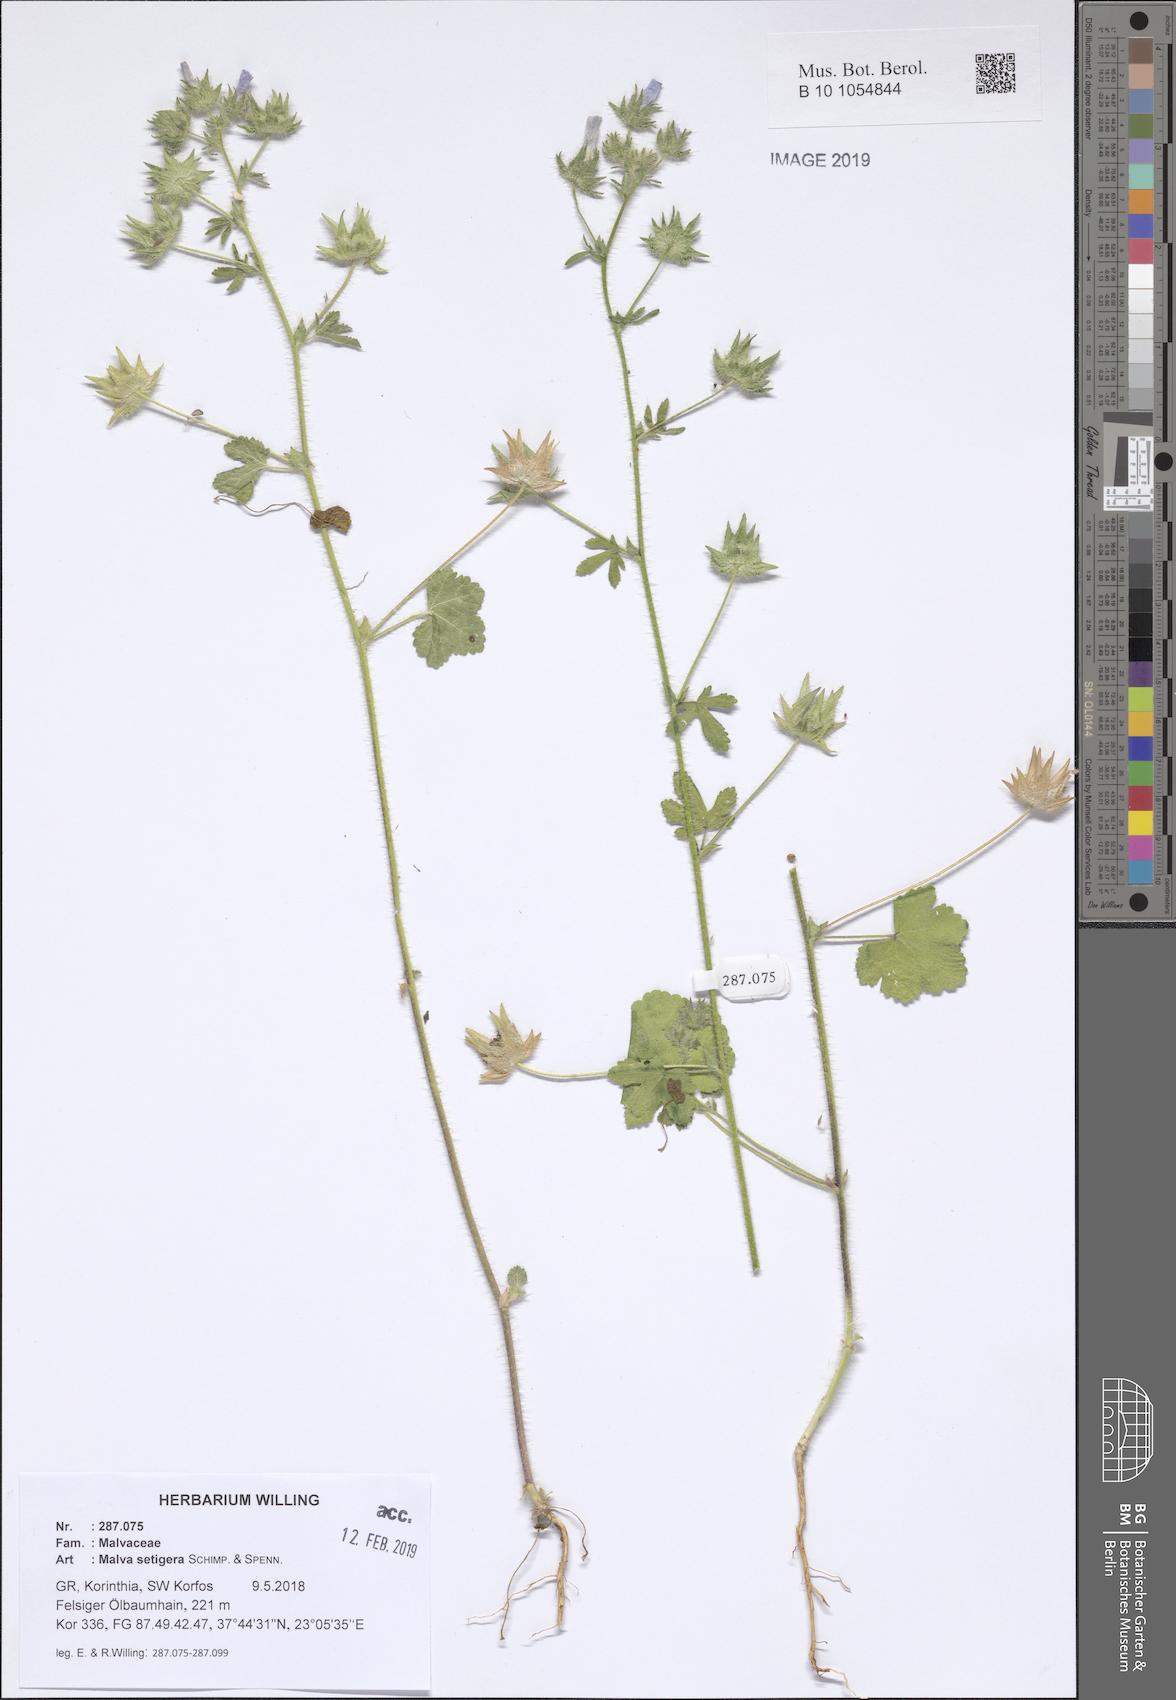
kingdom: Plantae
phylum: Tracheophyta
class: Magnoliopsida
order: Malvales
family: Malvaceae
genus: Althaea
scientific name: Althaea hirsuta
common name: Rough marsh-mallow
